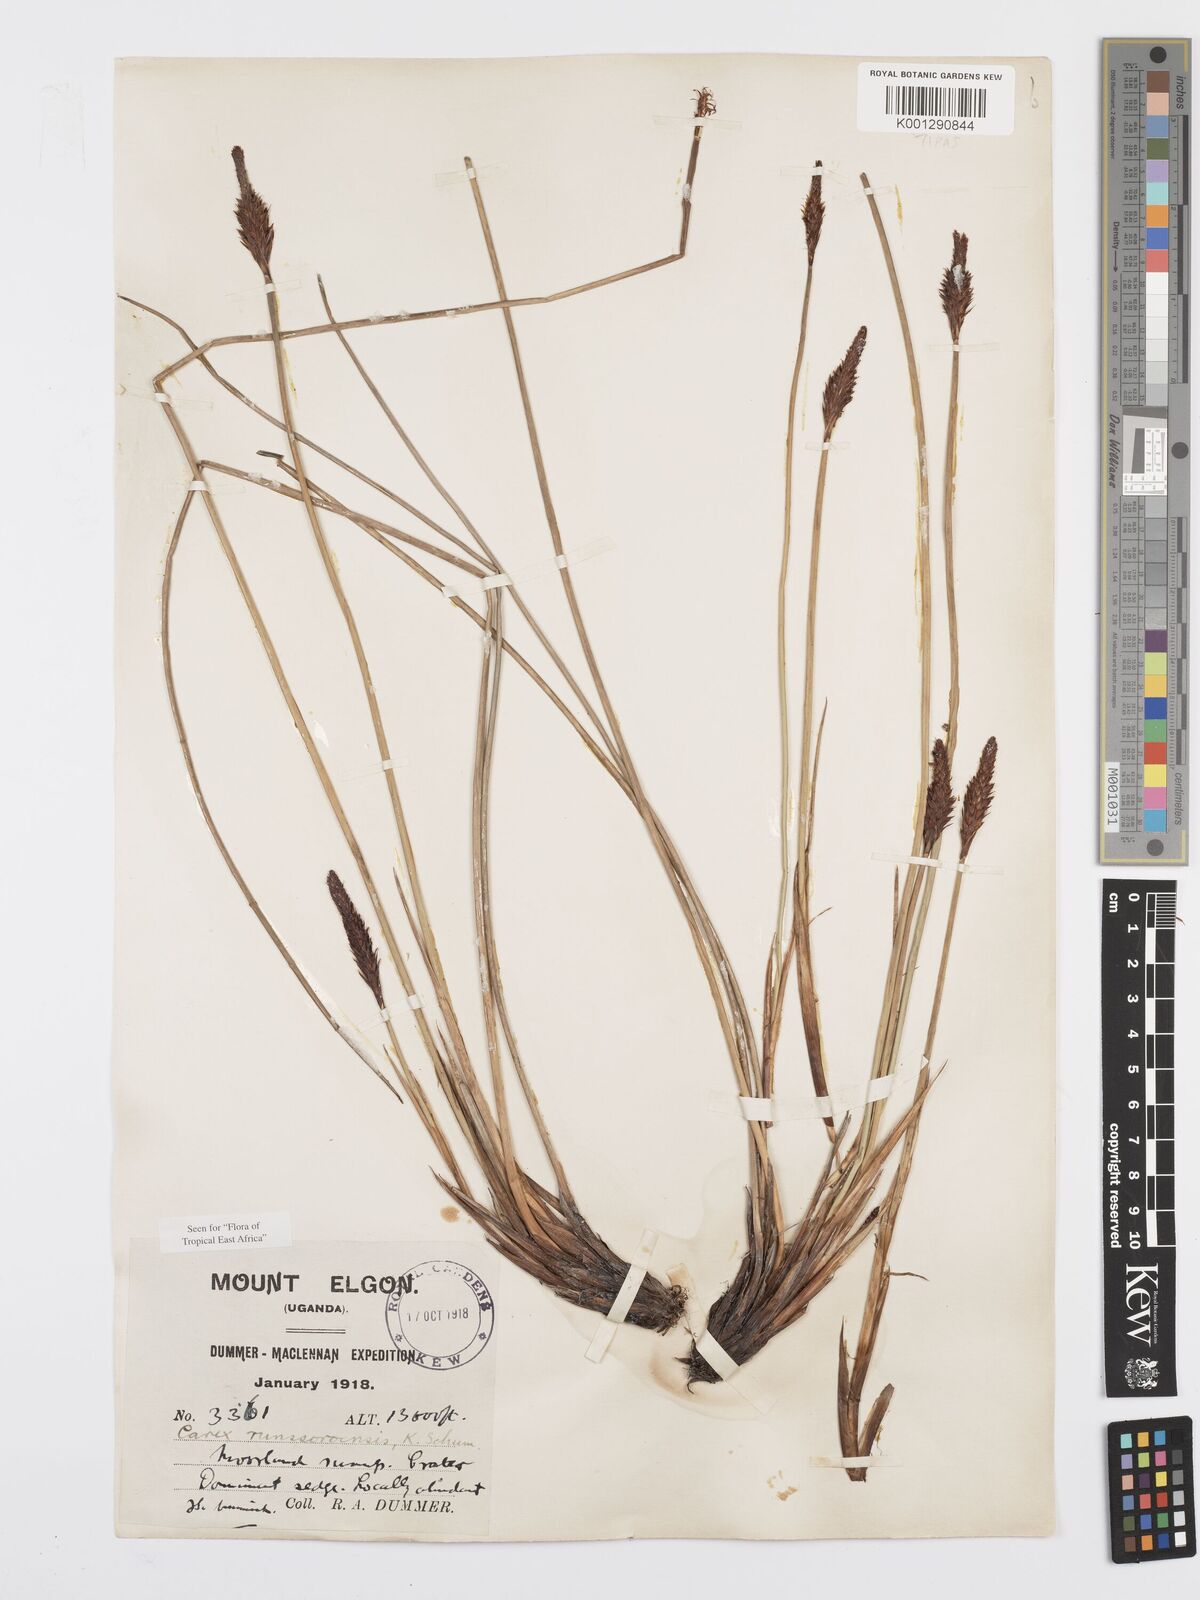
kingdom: Plantae
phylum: Tracheophyta
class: Liliopsida
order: Poales
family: Cyperaceae
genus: Carex
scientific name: Carex runssoroensis
